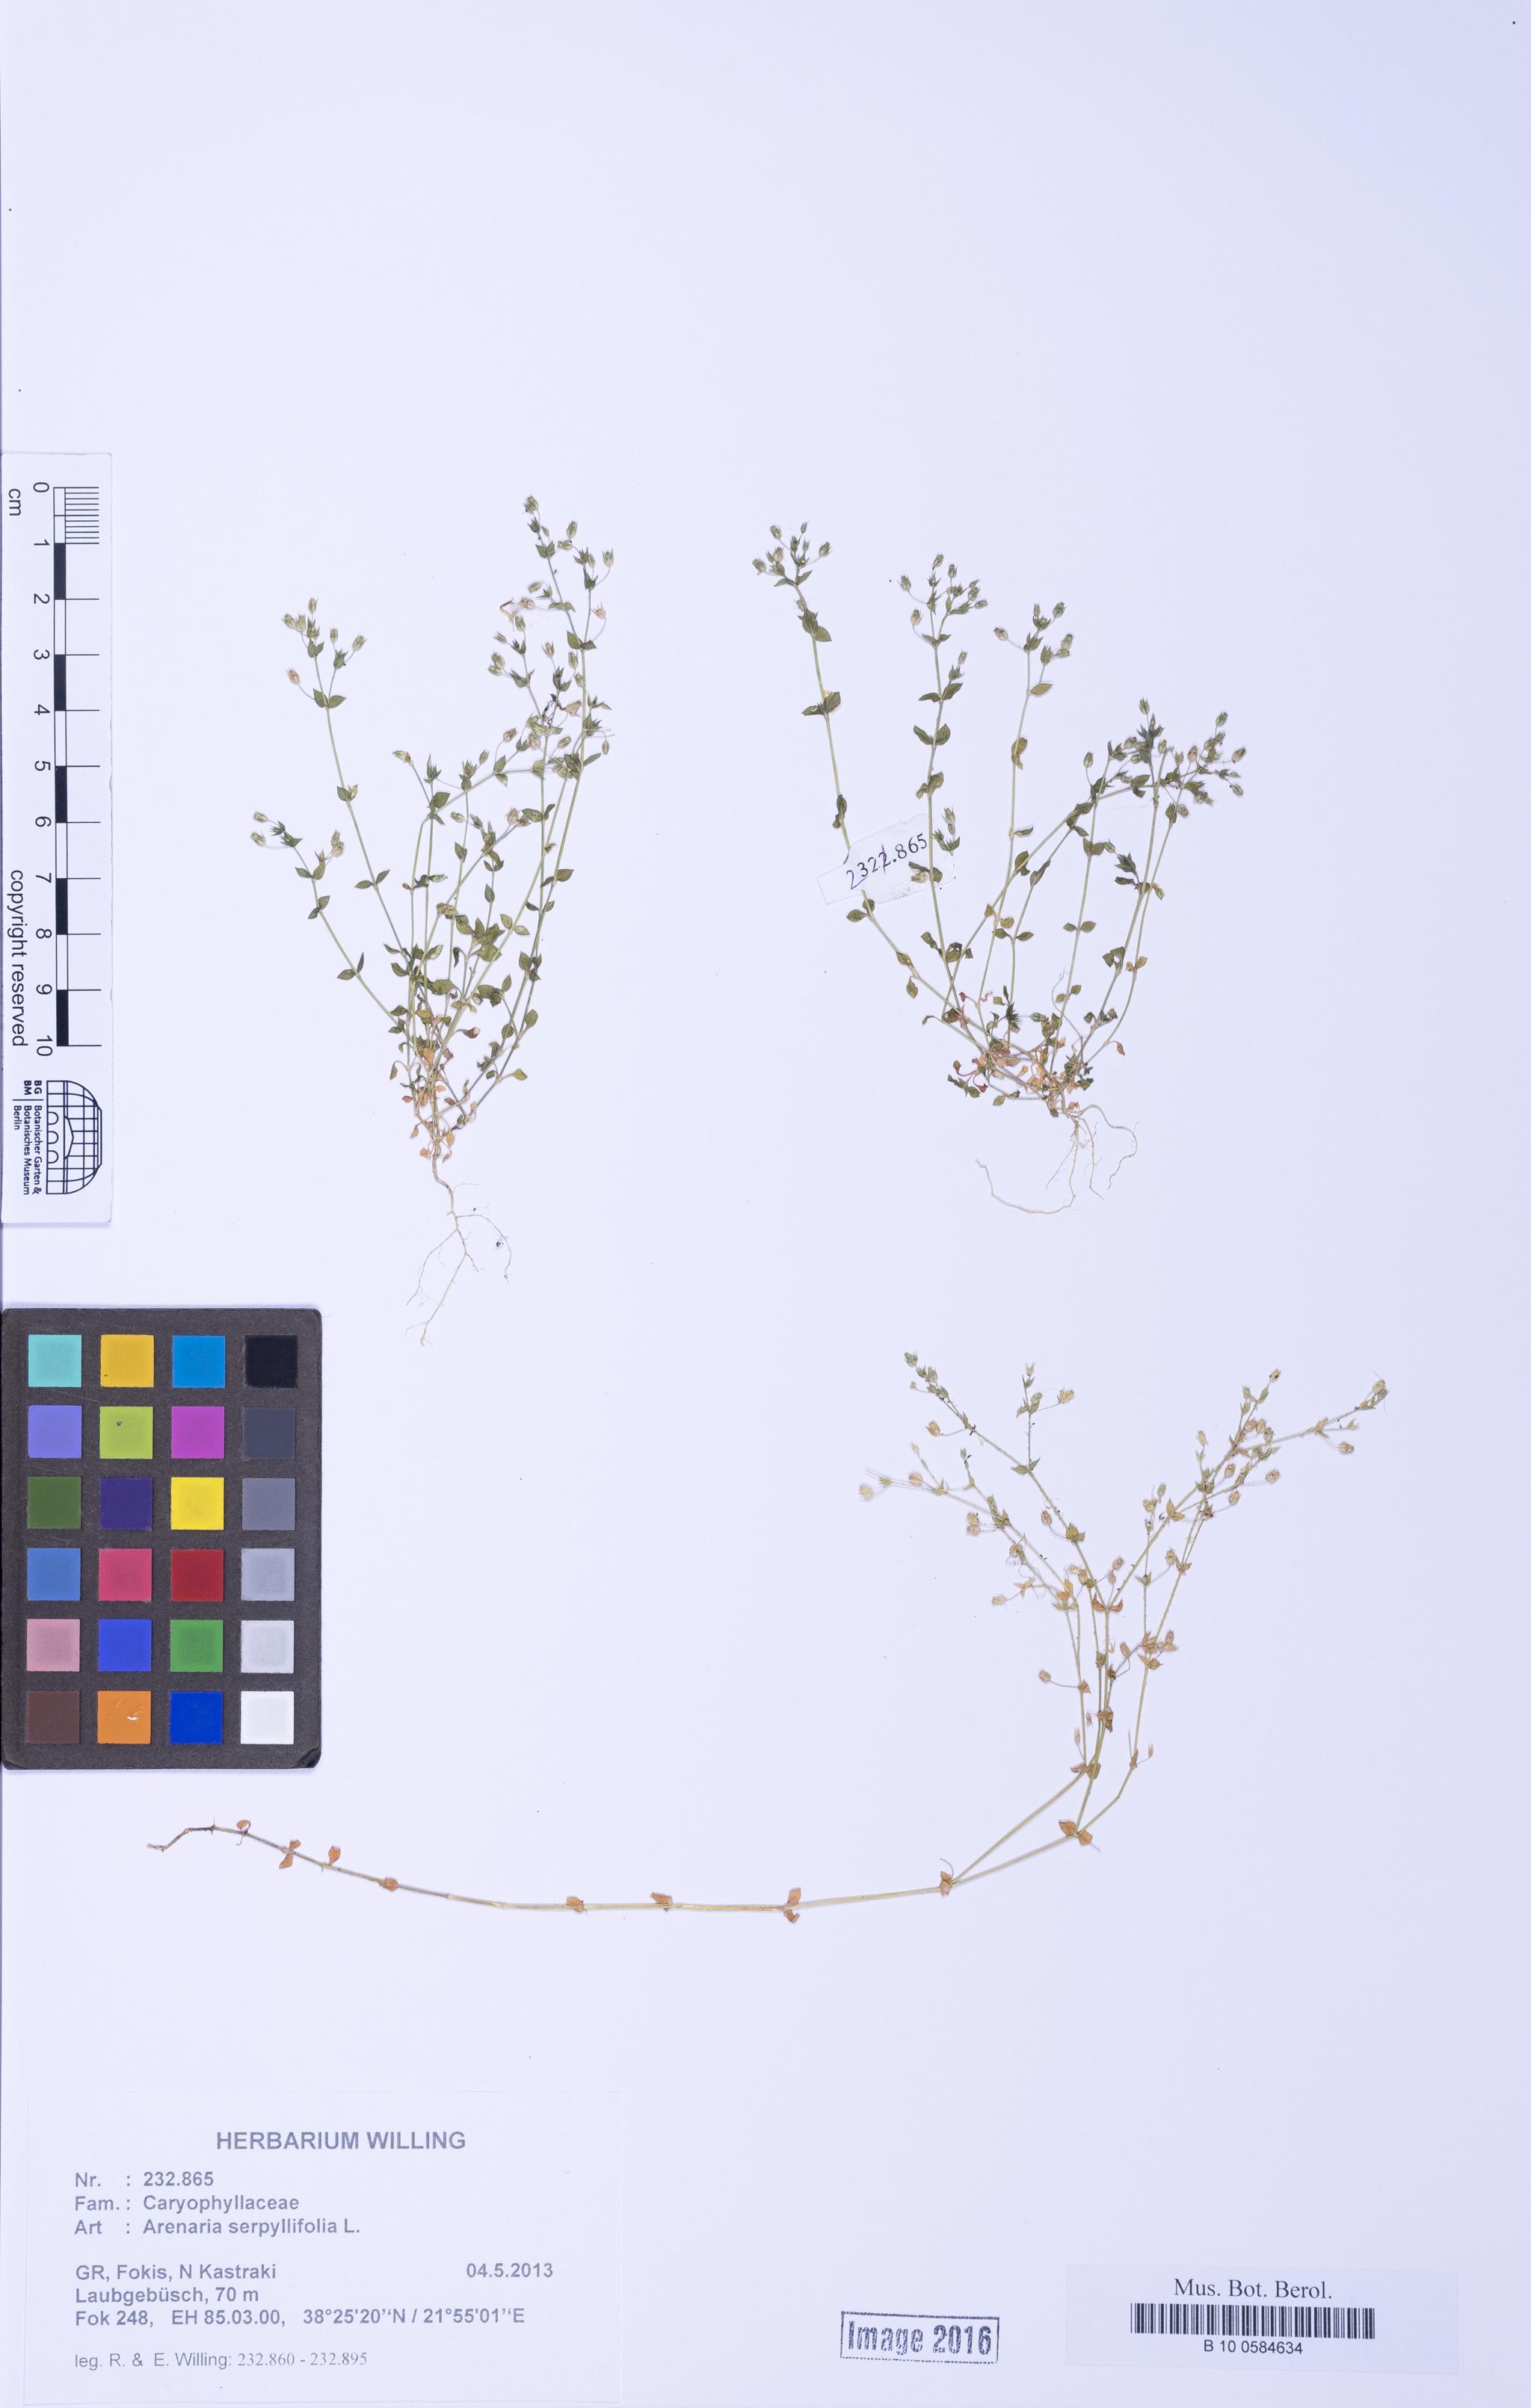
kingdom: Plantae
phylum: Tracheophyta
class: Magnoliopsida
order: Caryophyllales
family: Caryophyllaceae
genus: Arenaria
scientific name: Arenaria serpyllifolia
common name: Thyme-leaved sandwort
